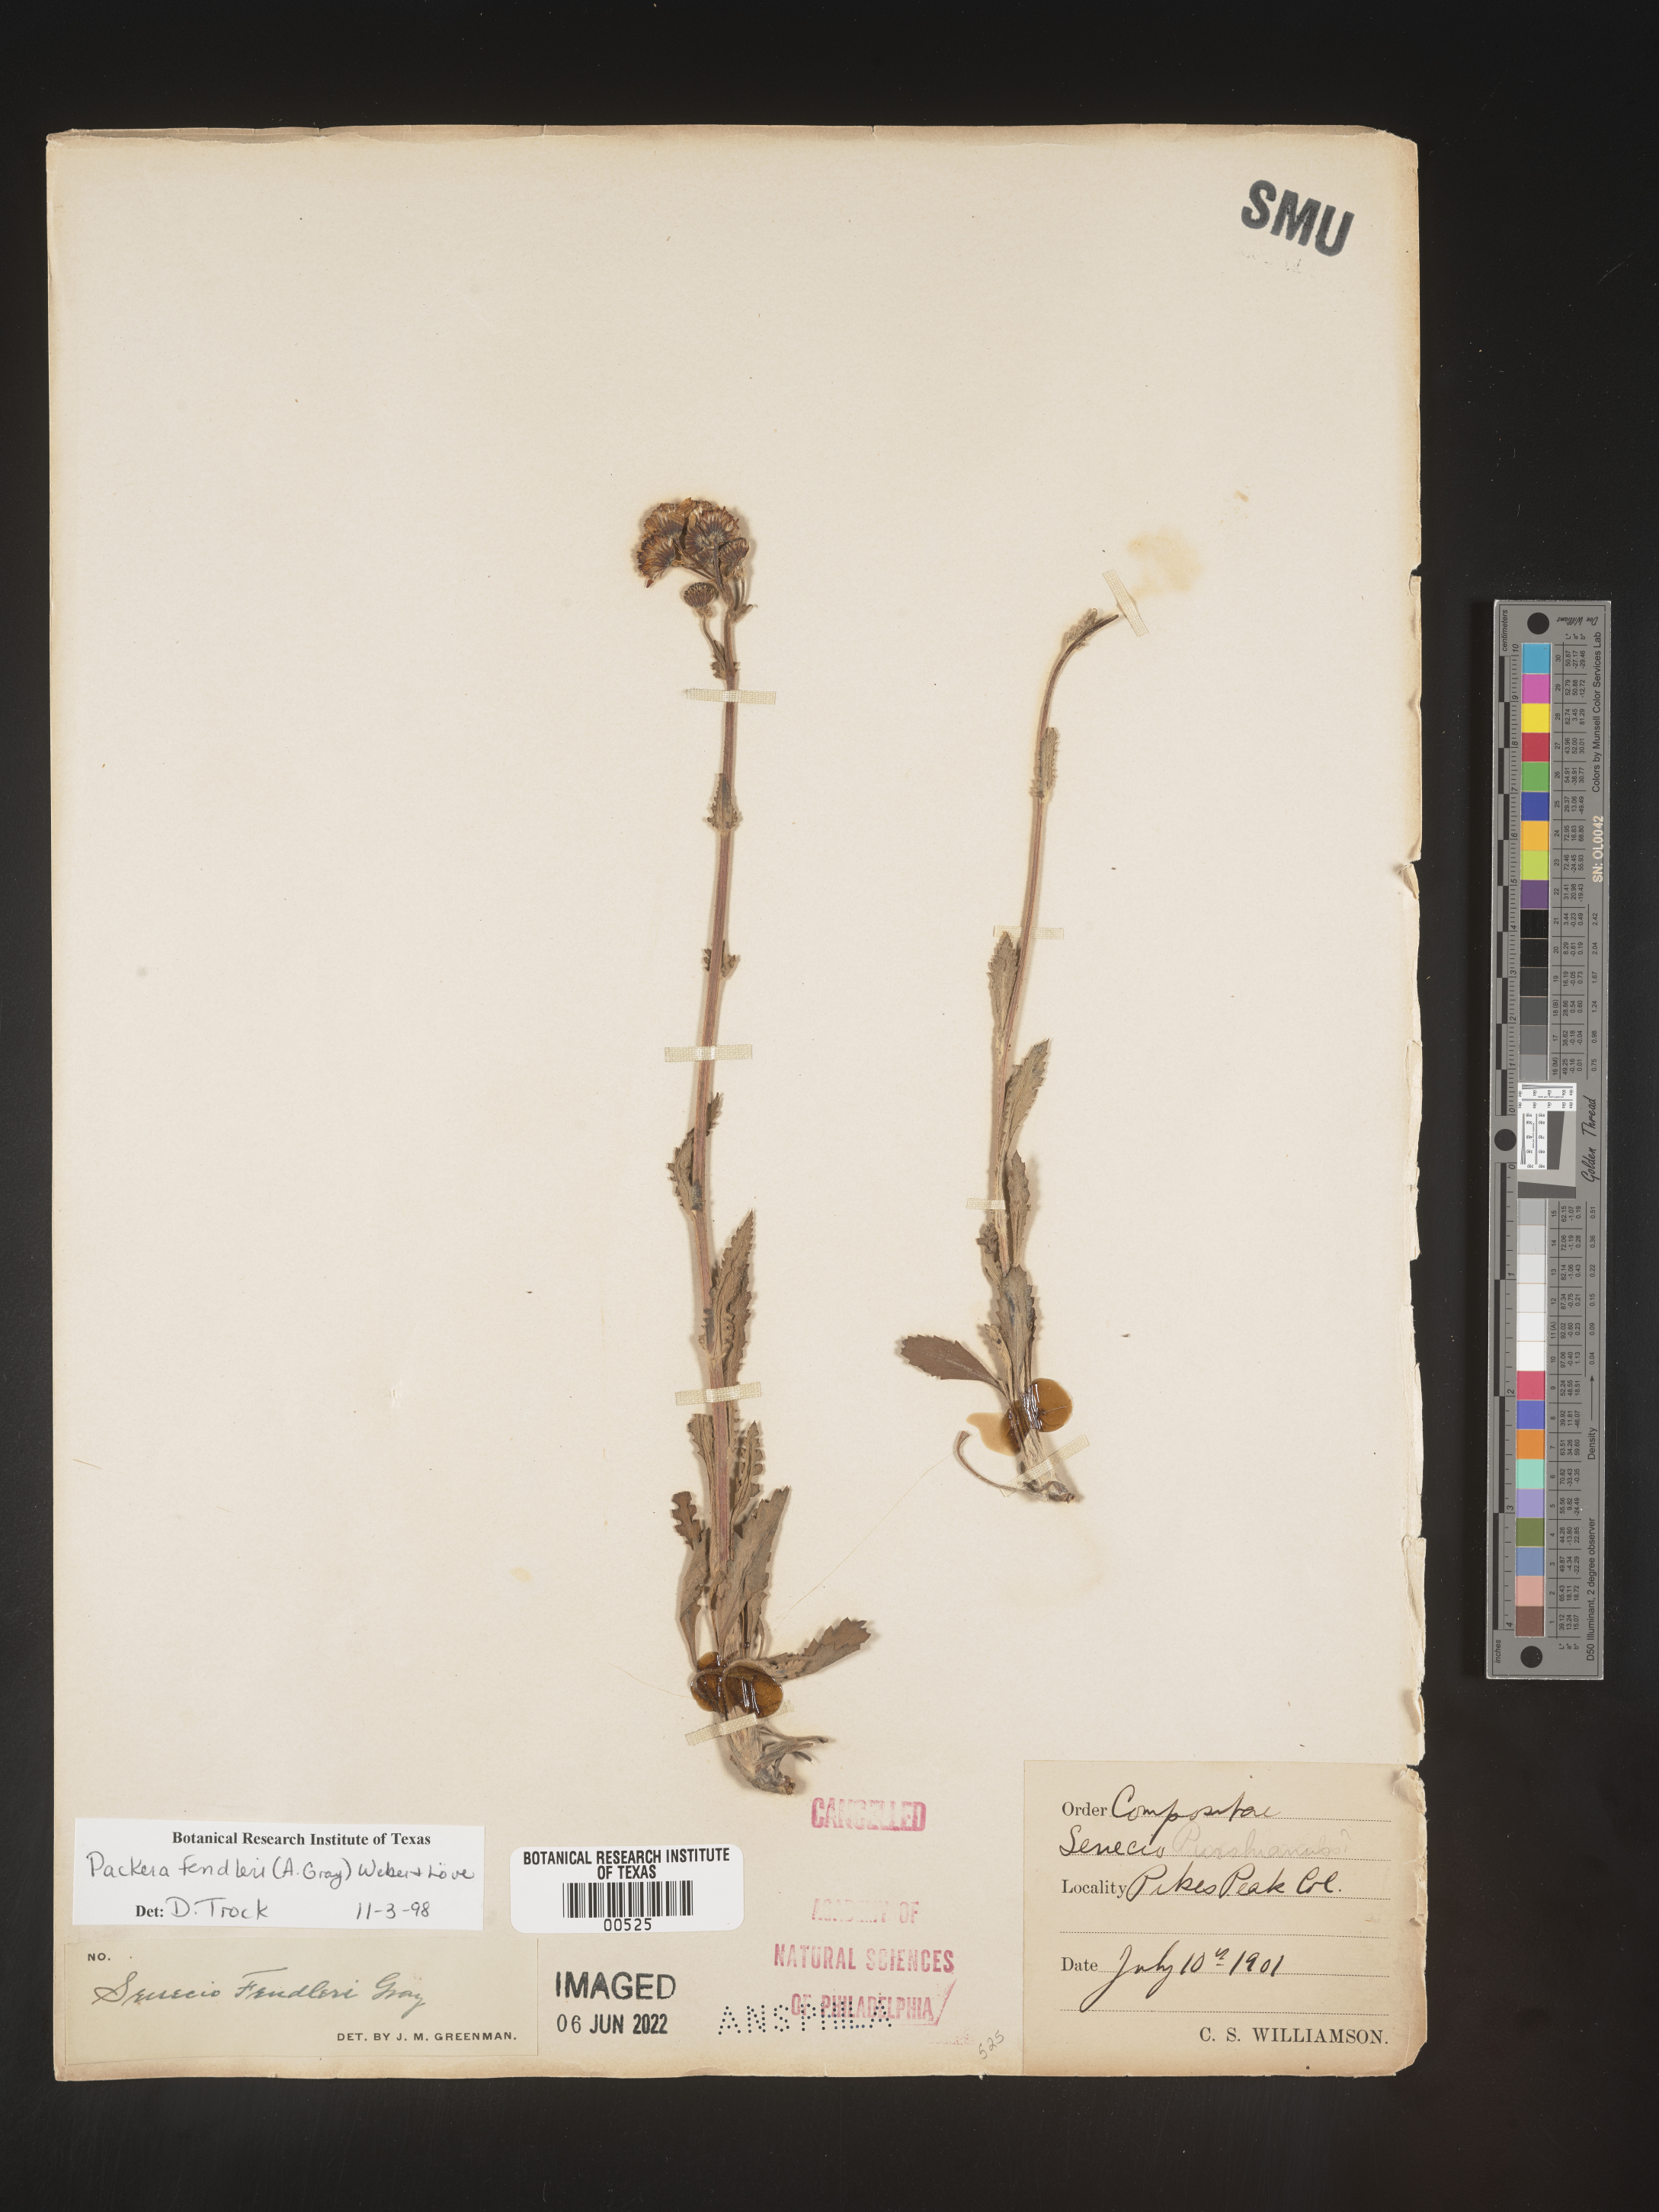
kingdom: Plantae
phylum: Tracheophyta
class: Magnoliopsida
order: Asterales
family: Asteraceae
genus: Packera
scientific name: Packera fendleri
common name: Notch-leaf butterweed
